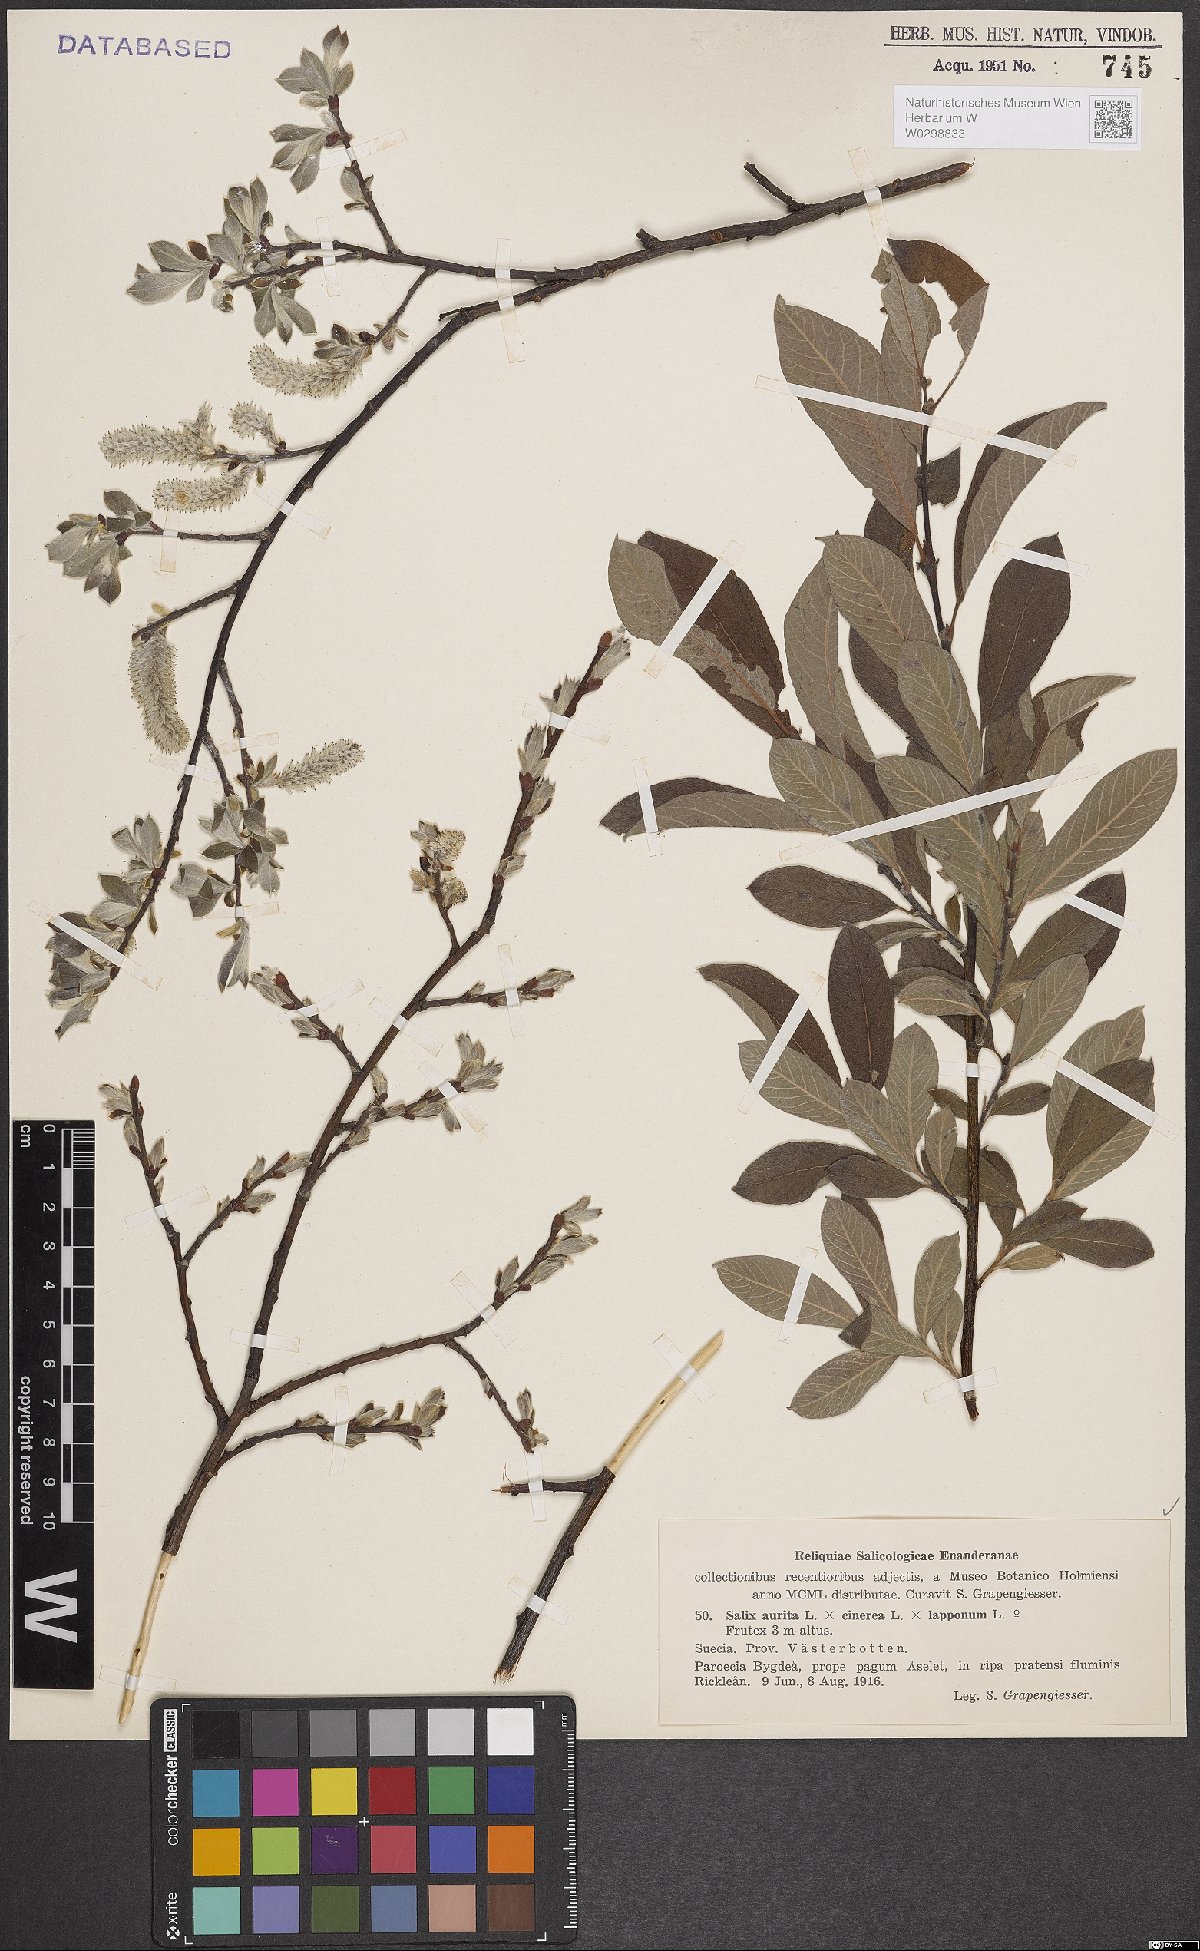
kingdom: Plantae
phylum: Tracheophyta
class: Magnoliopsida
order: Malpighiales
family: Salicaceae
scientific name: Salicaceae
